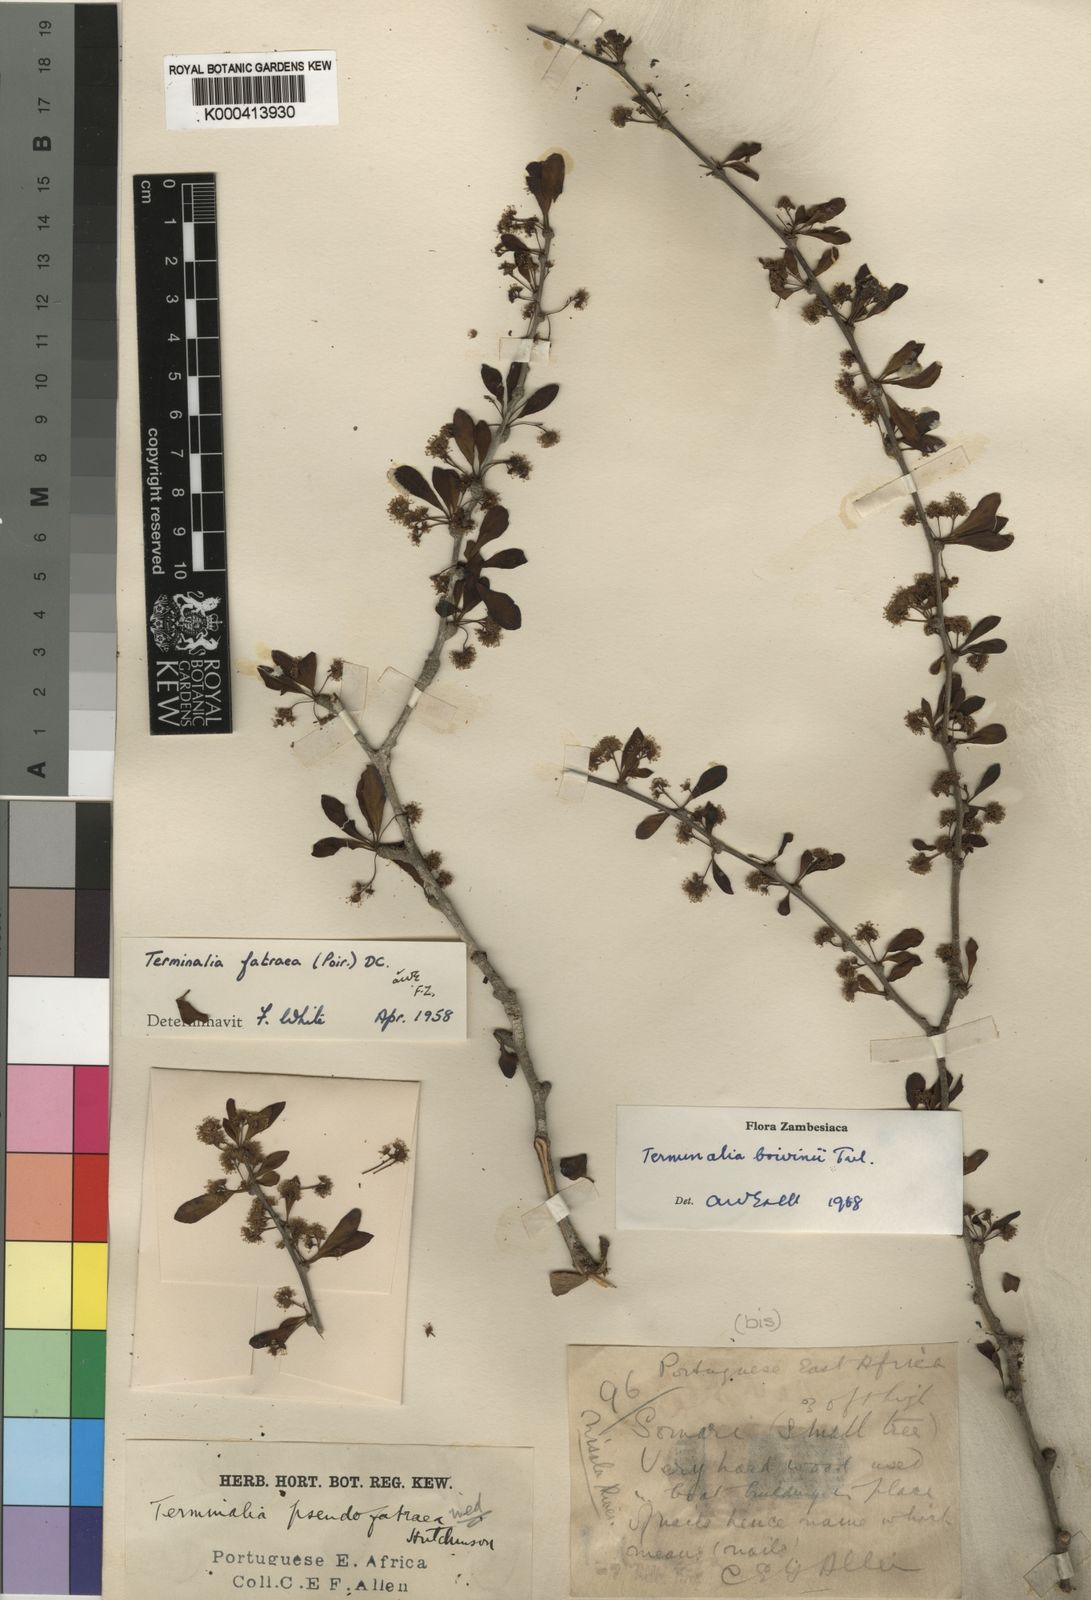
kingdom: Plantae
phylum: Tracheophyta
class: Magnoliopsida
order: Myrtales
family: Combretaceae
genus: Terminalia
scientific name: Terminalia fatraea
